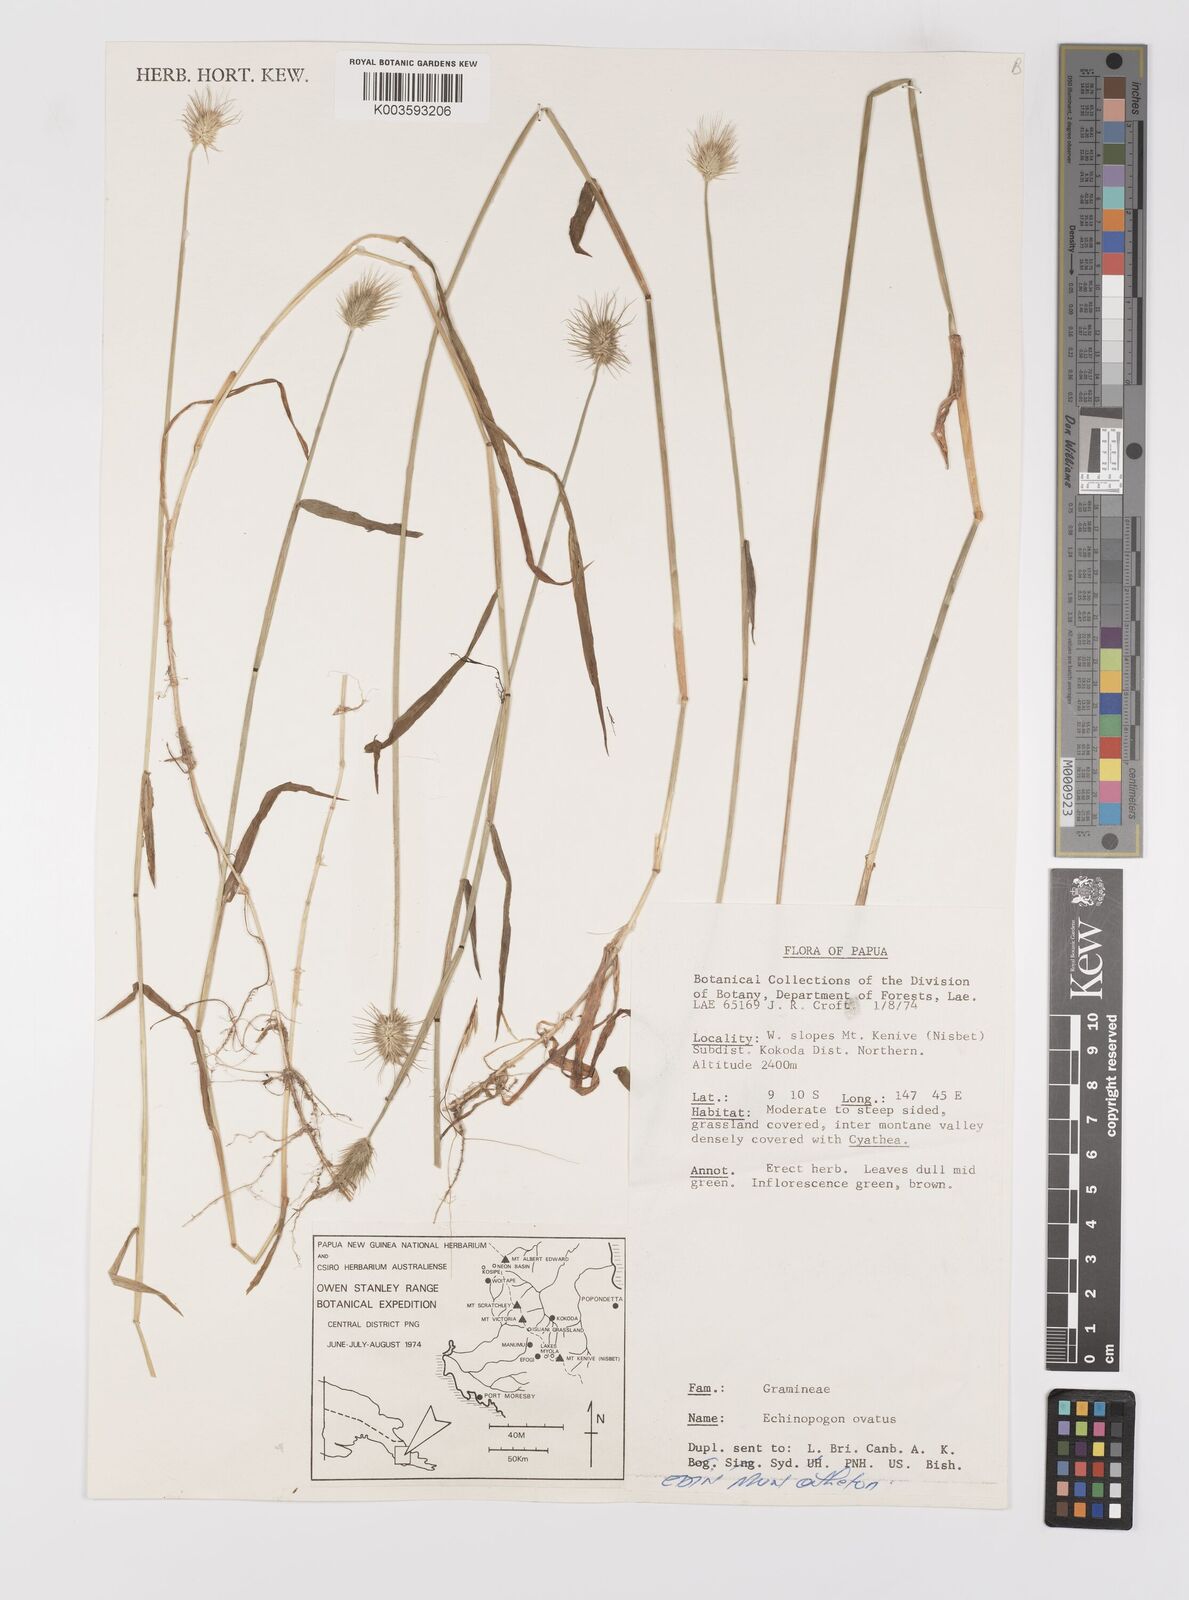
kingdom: Plantae
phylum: Tracheophyta
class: Liliopsida
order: Poales
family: Poaceae
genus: Echinopogon
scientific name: Echinopogon ovatus
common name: Hedgehog-grass
